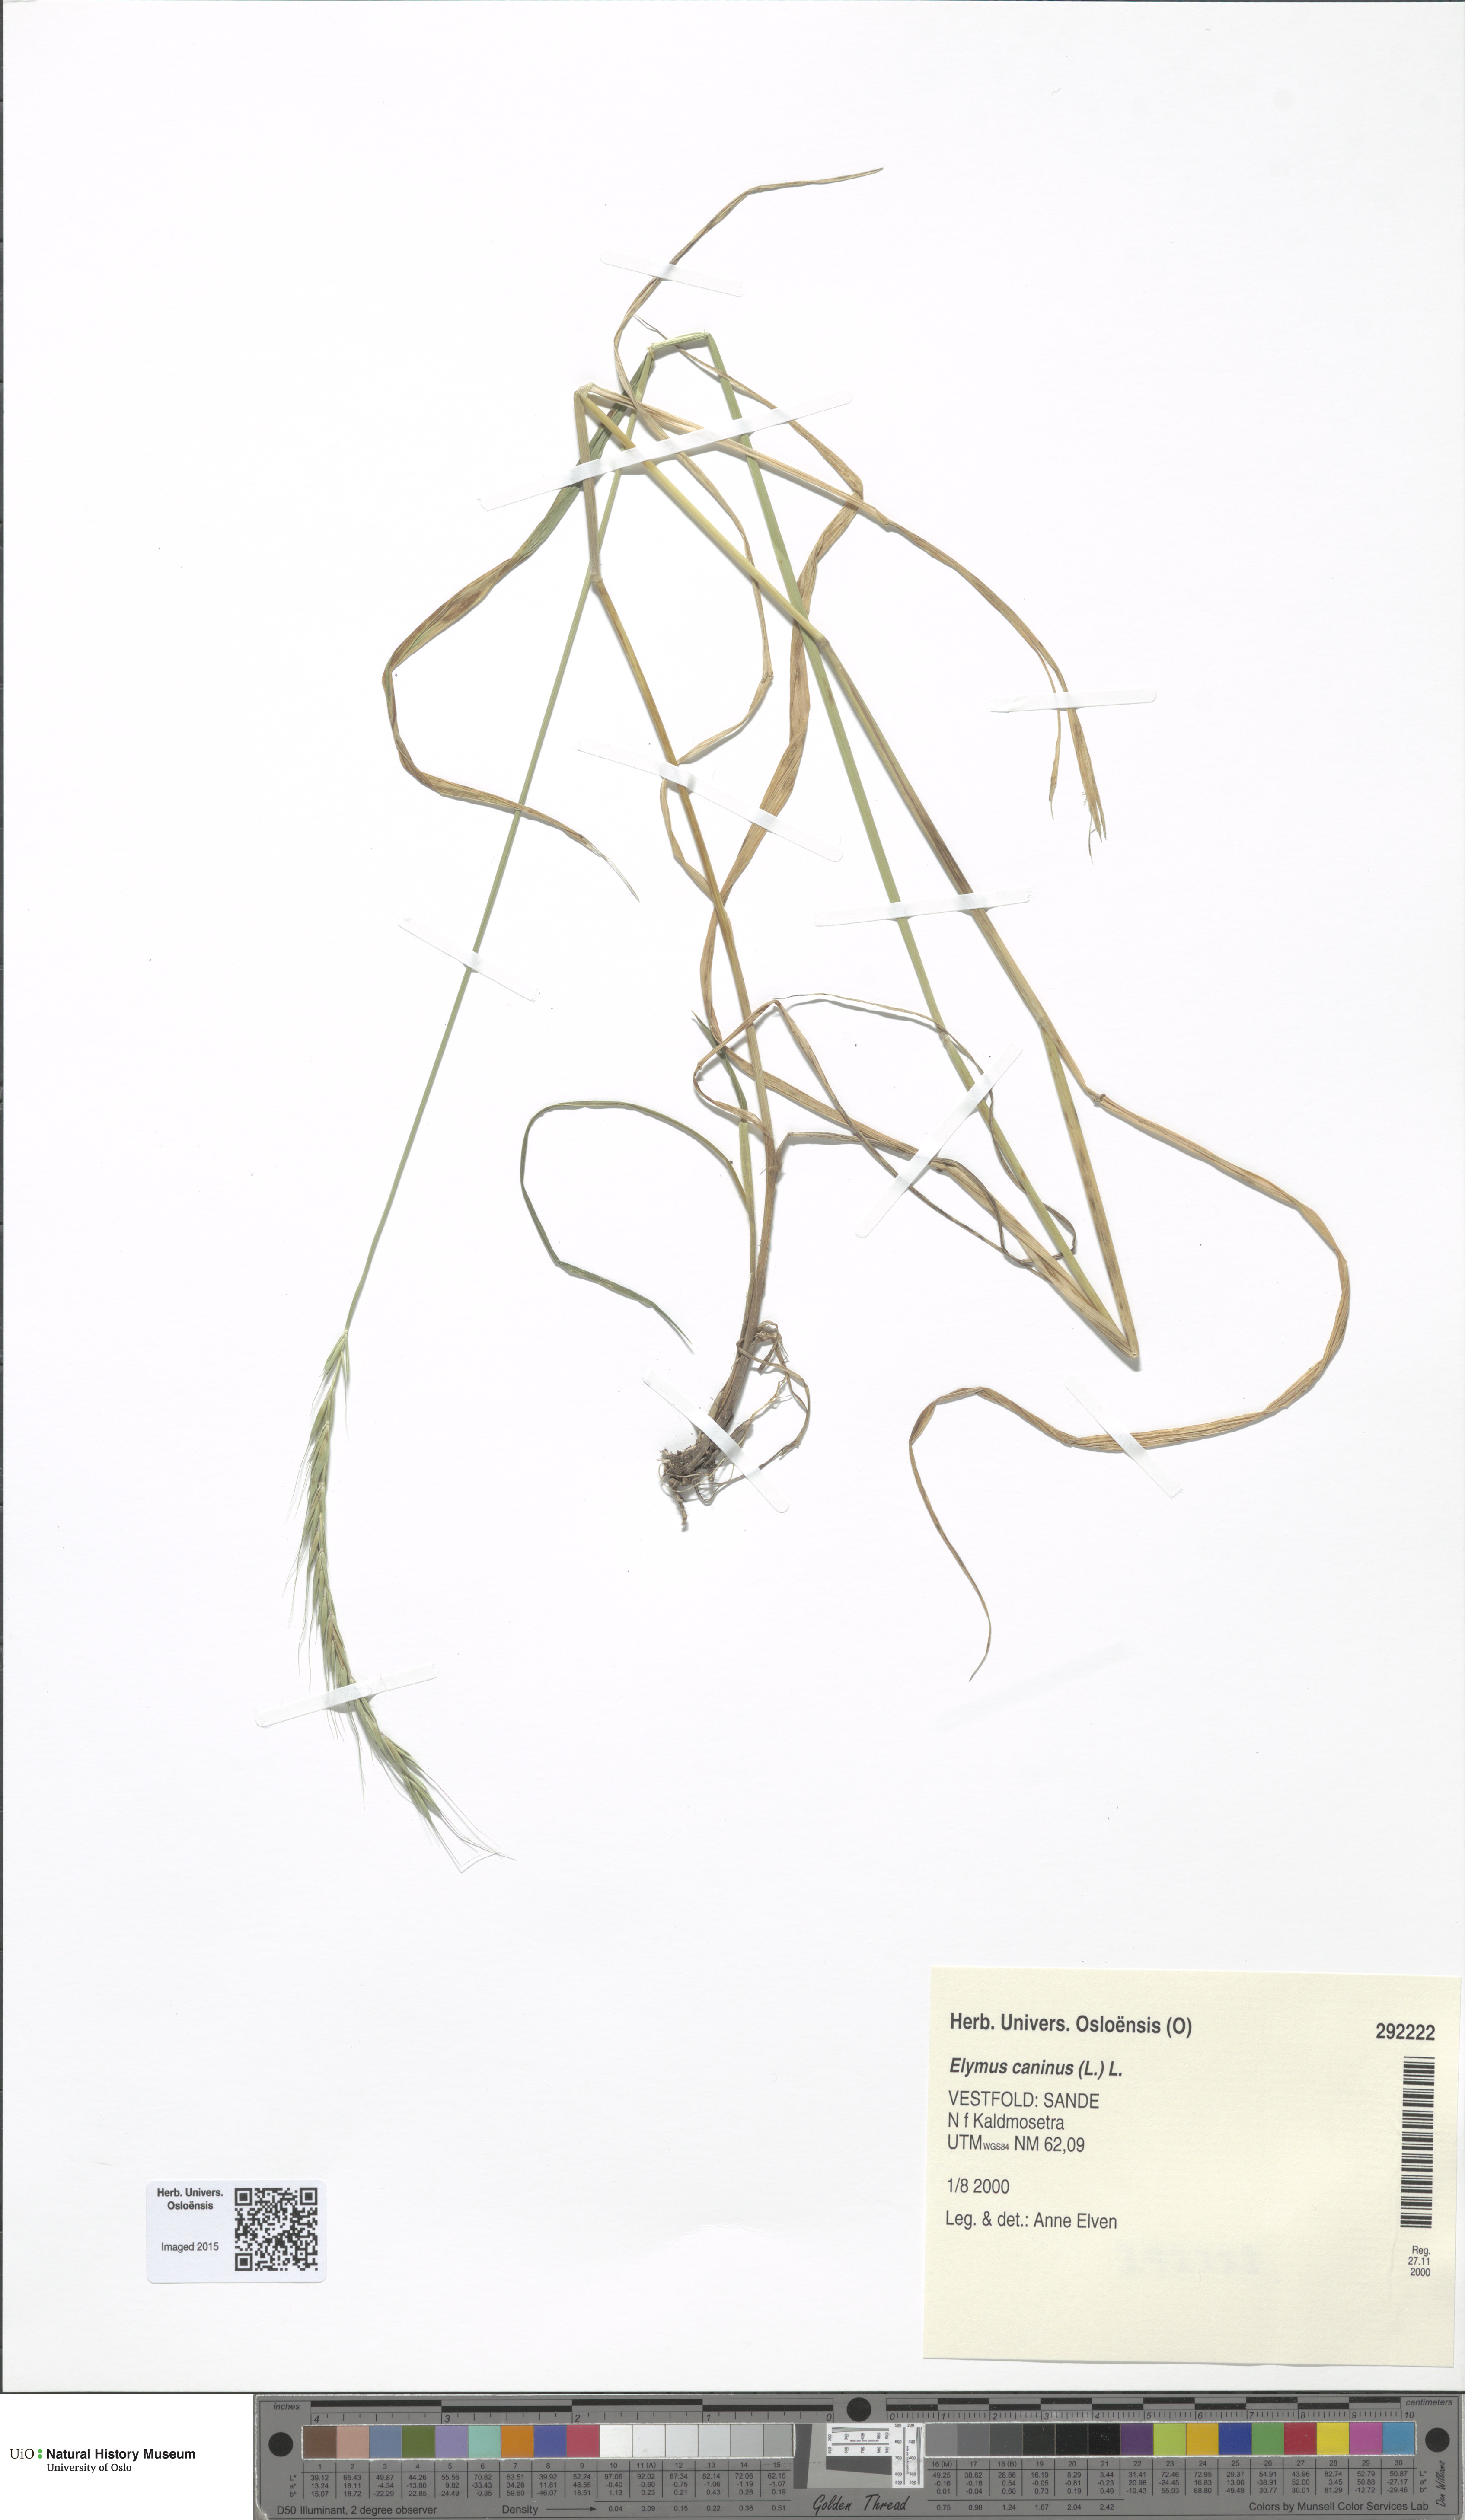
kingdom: Plantae
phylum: Tracheophyta
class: Liliopsida
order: Poales
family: Poaceae
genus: Elymus
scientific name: Elymus caninus
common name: Bearded couch
